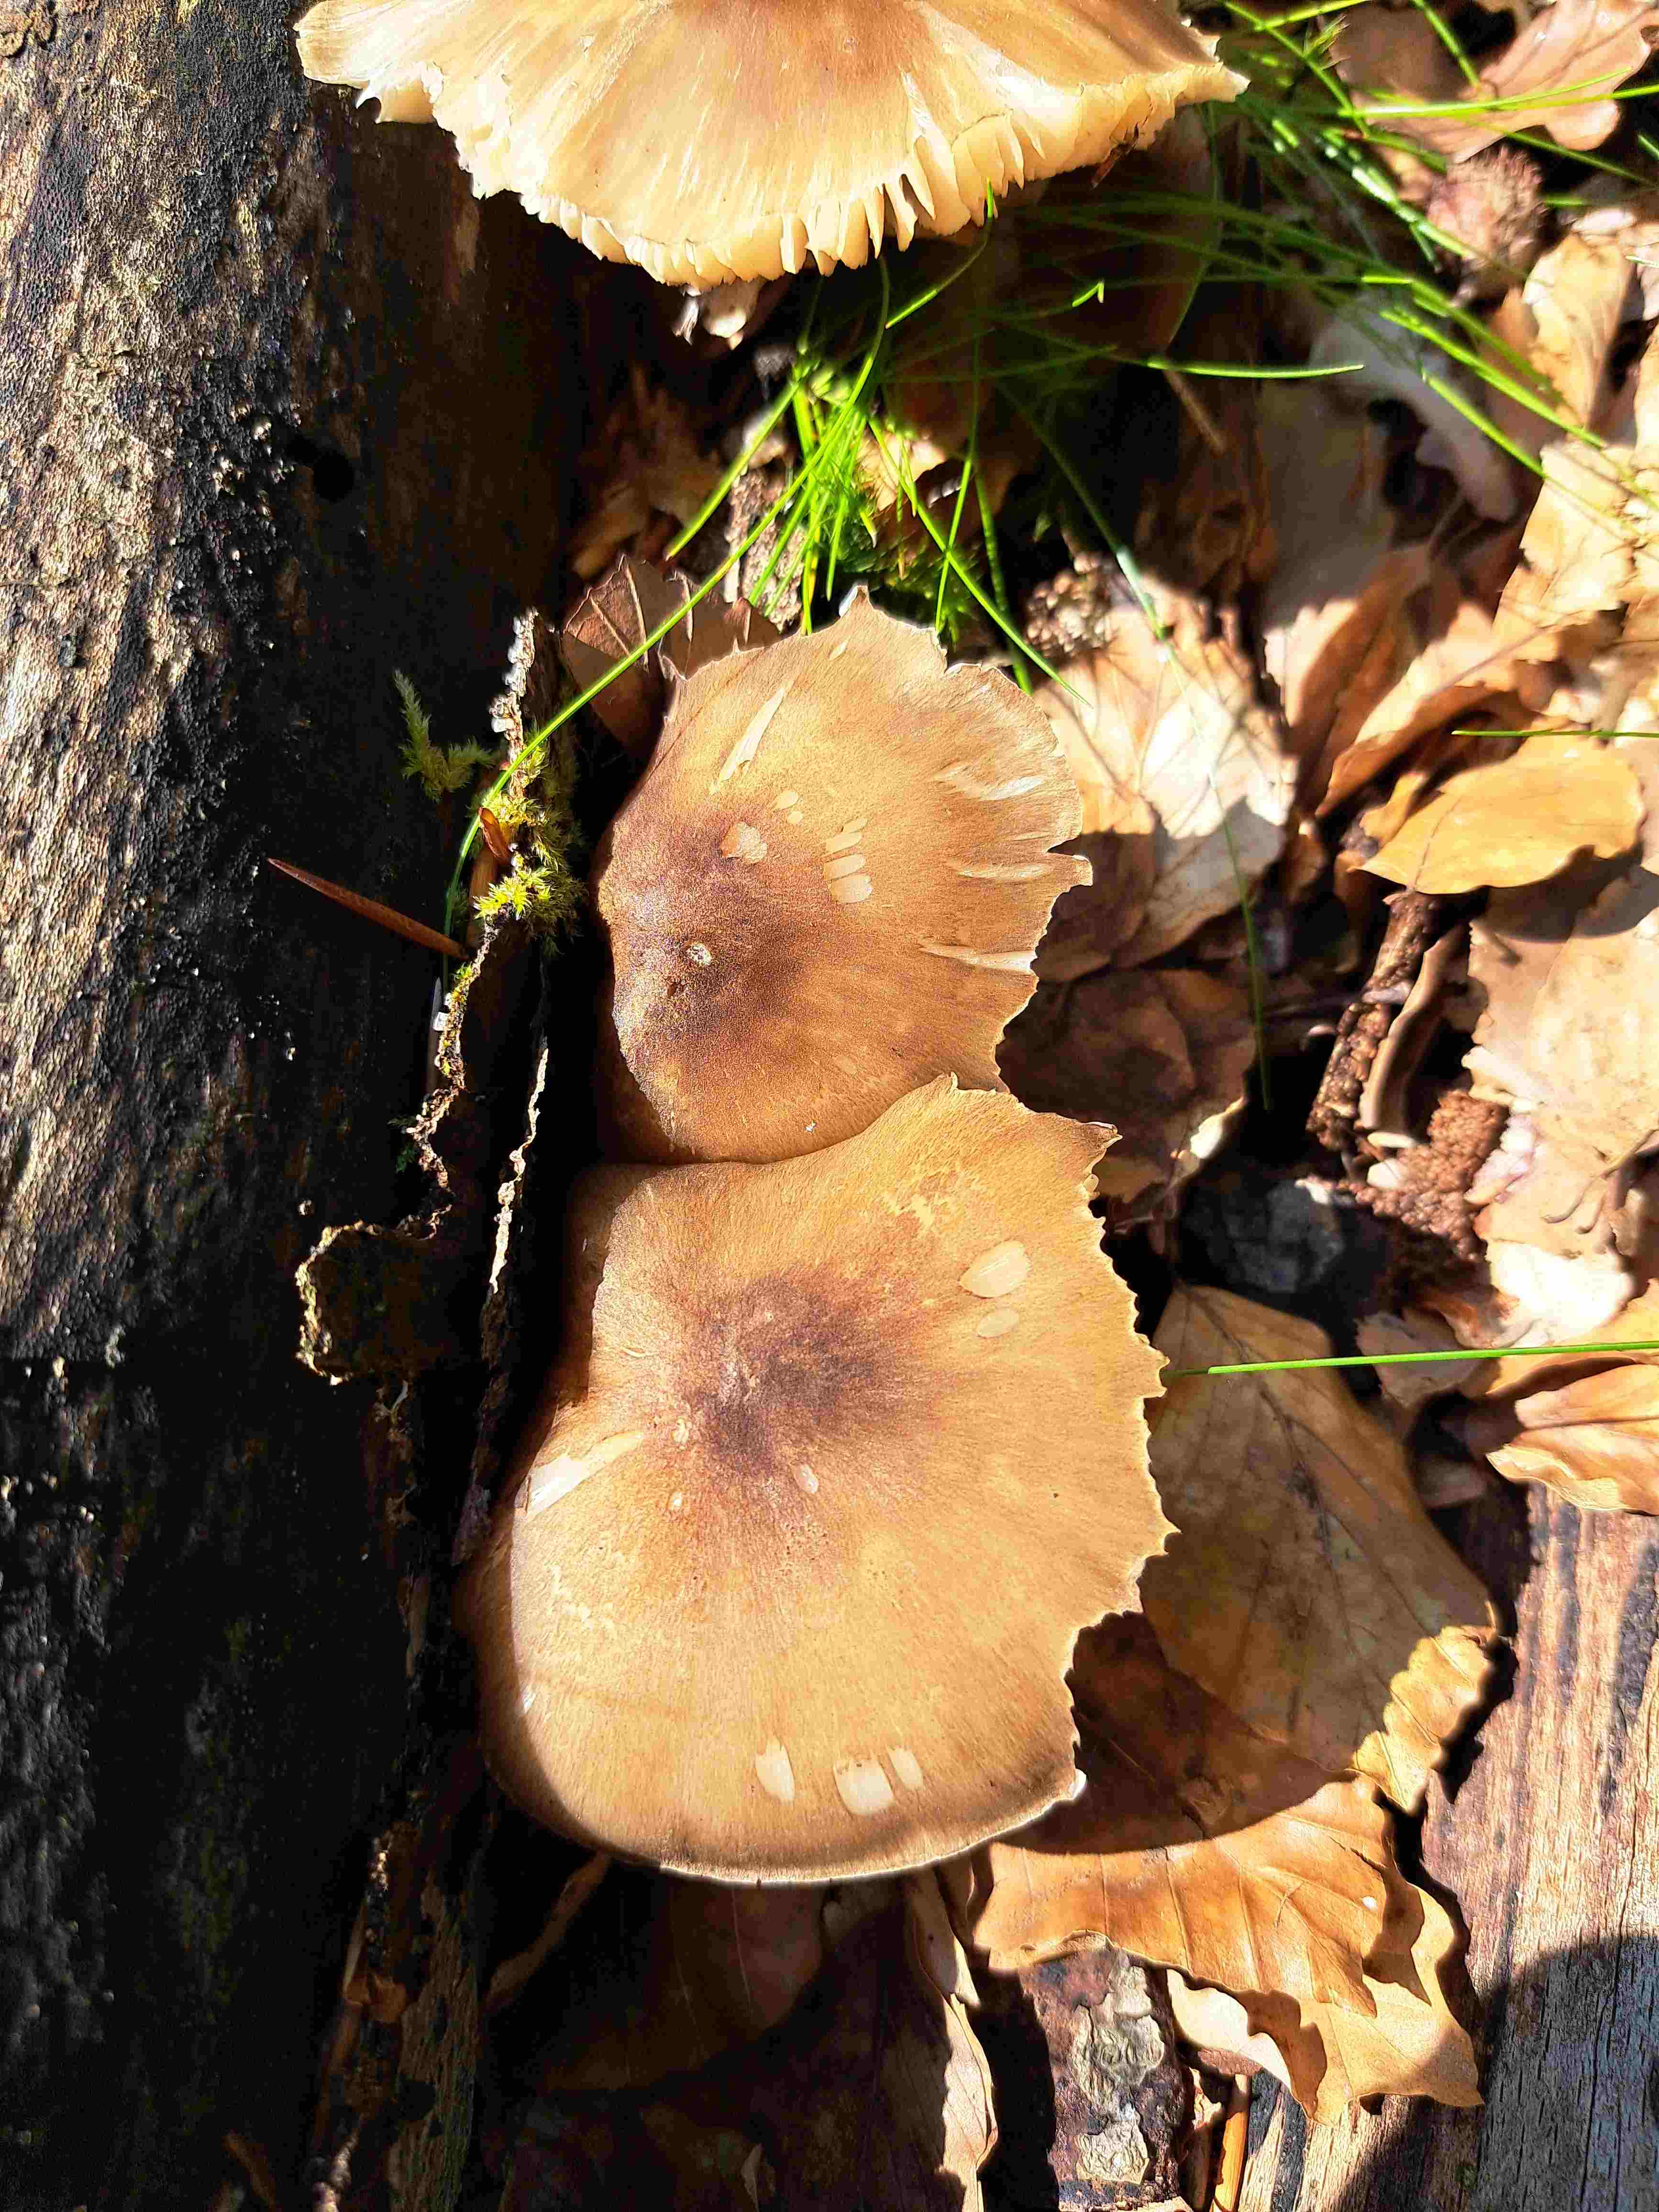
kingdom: Fungi
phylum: Basidiomycota
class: Agaricomycetes
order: Agaricales
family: Tricholomataceae
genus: Megacollybia
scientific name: Megacollybia platyphylla
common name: bredbladet væbnerhat
